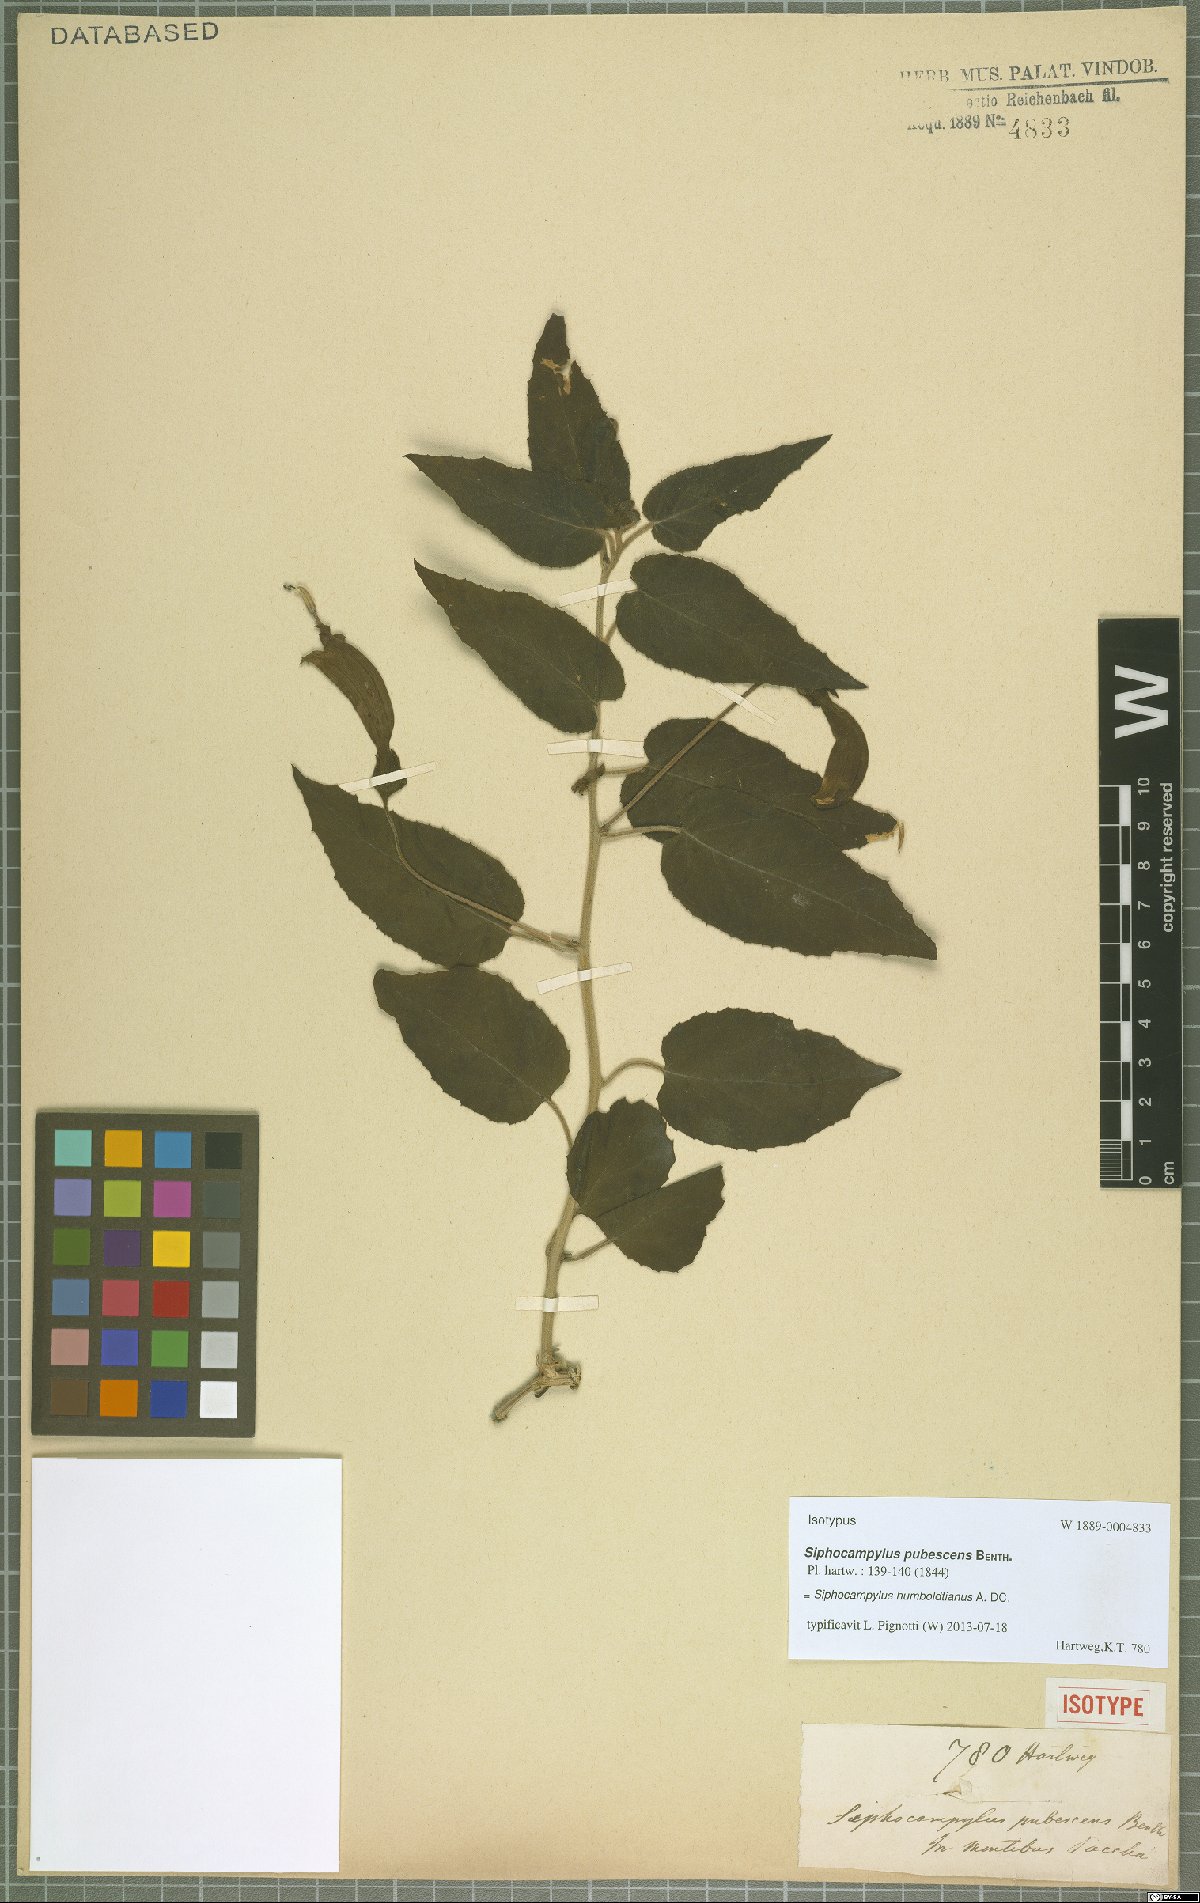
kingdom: Plantae
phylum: Tracheophyta
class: Magnoliopsida
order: Asterales
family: Campanulaceae
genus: Siphocampylus
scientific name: Siphocampylus humboldtianus
